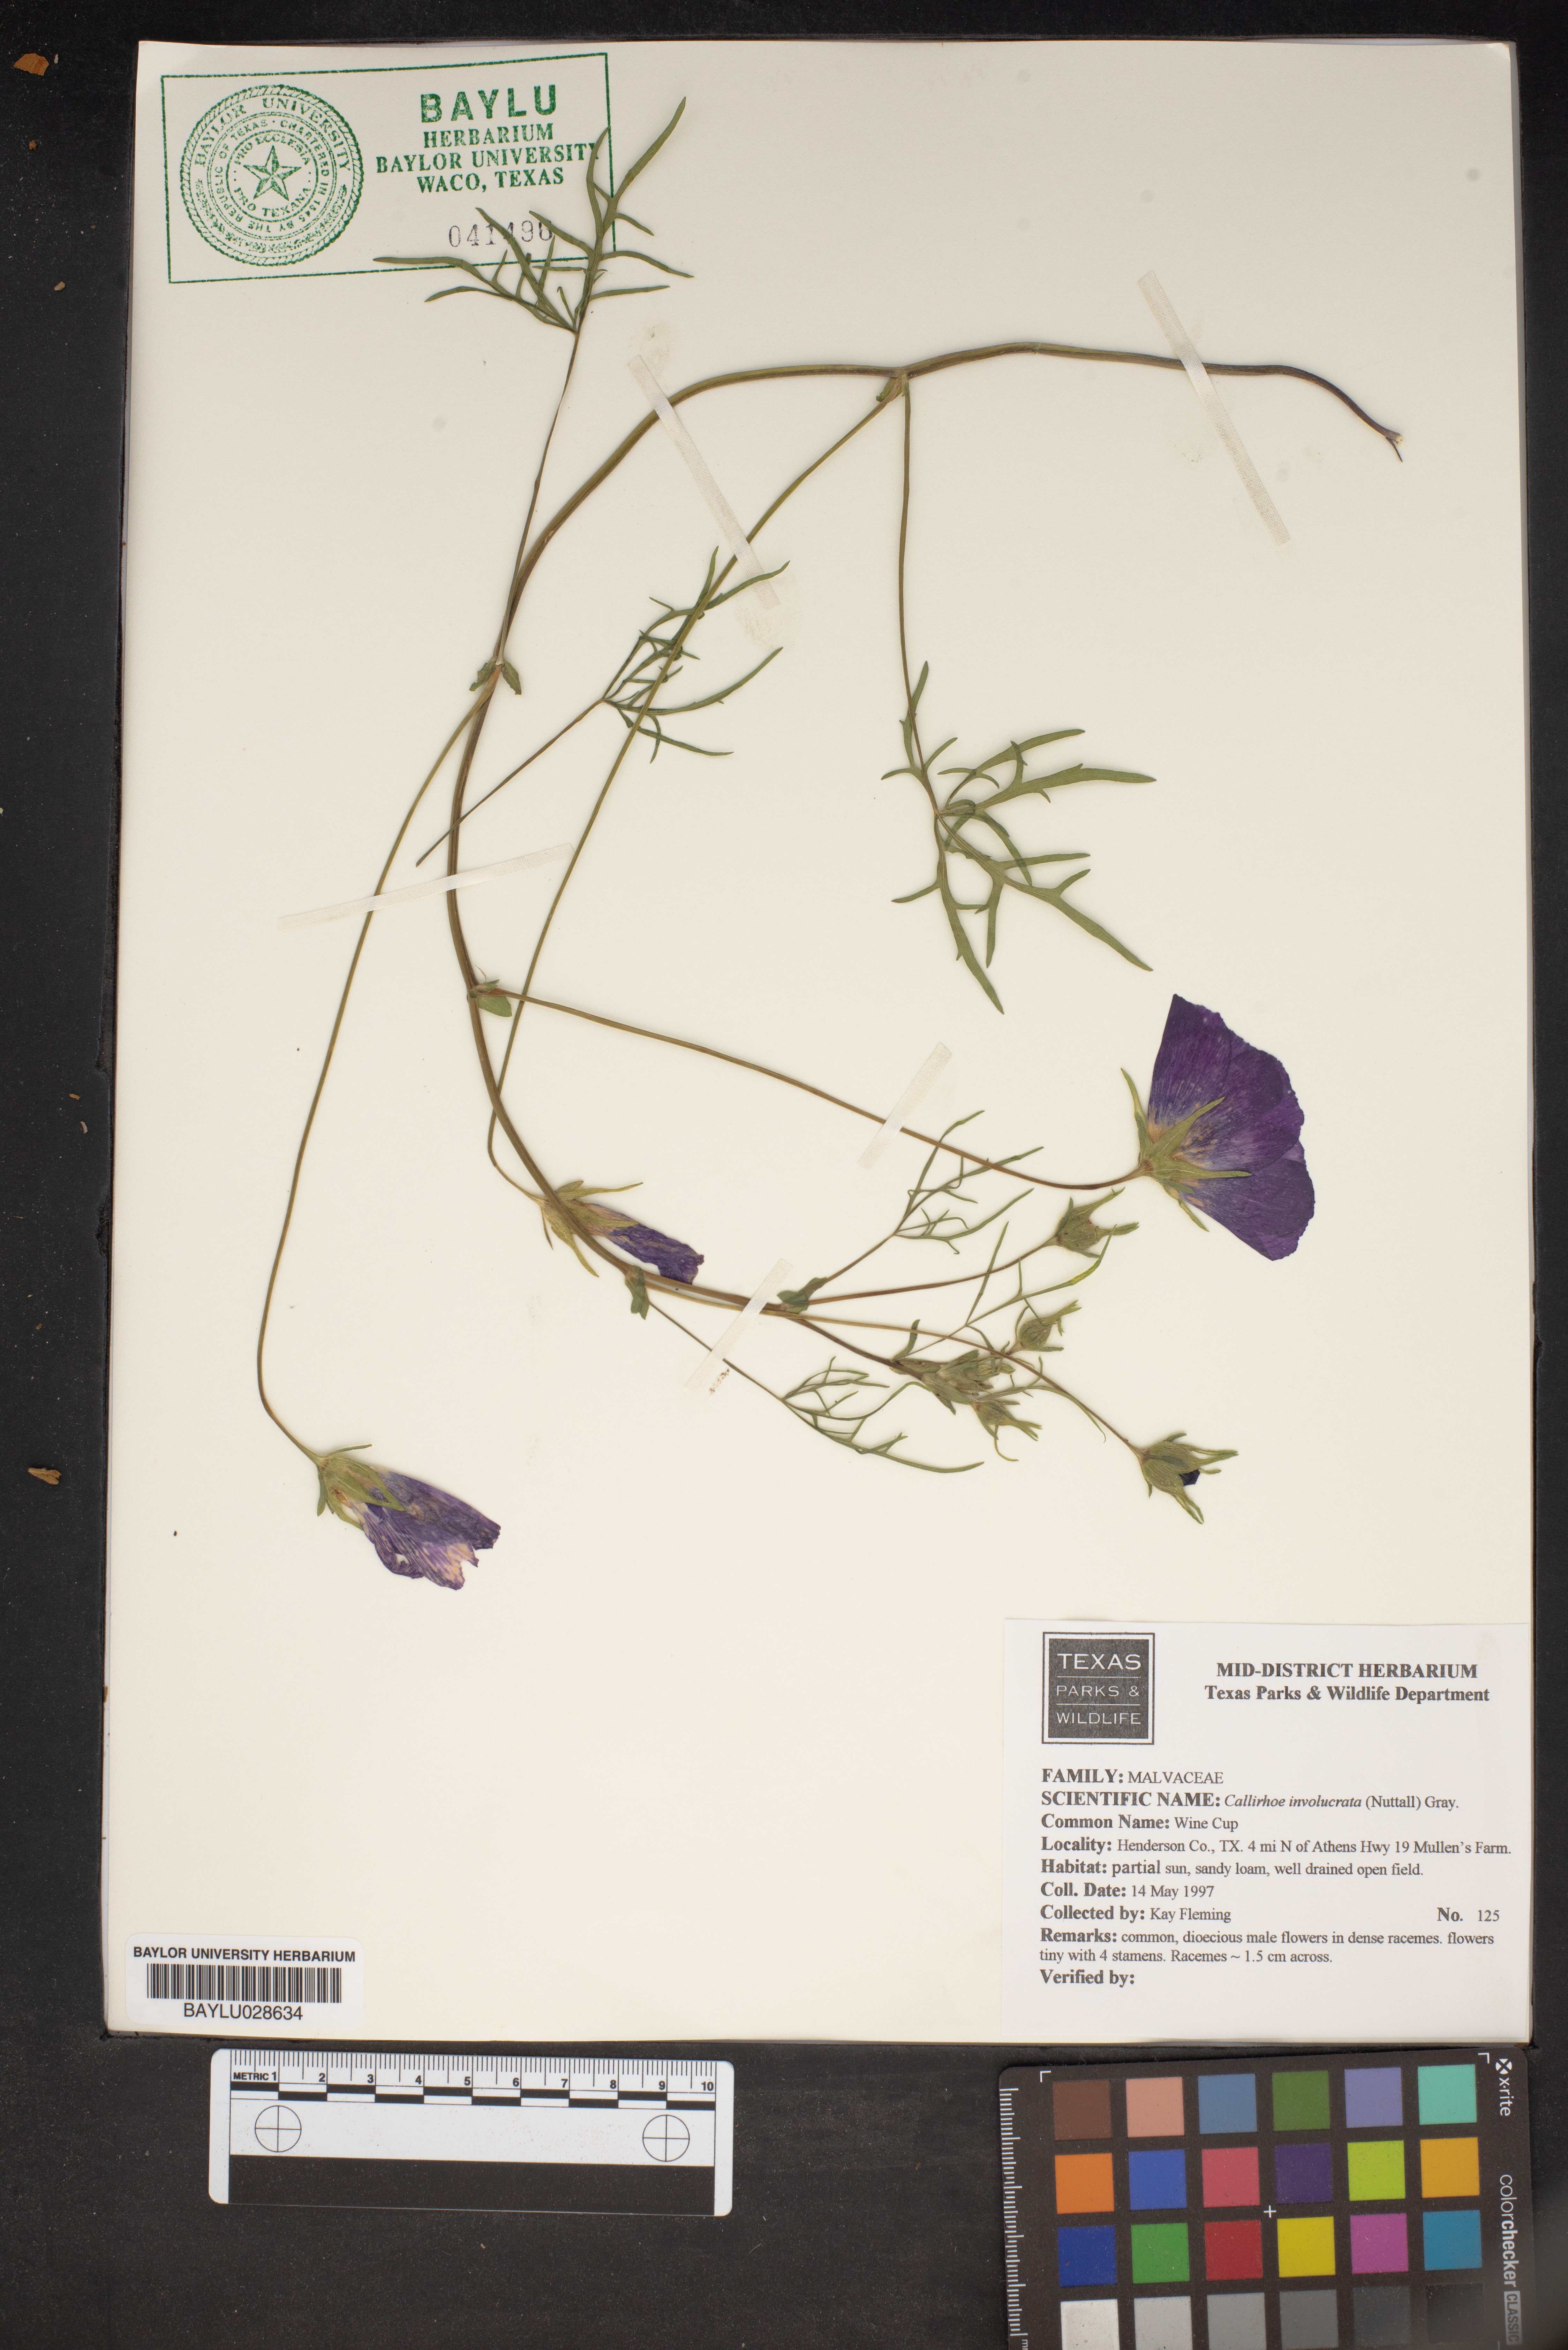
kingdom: Plantae
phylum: Tracheophyta
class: Magnoliopsida
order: Malvales
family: Malvaceae
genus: Callirhoe
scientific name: Callirhoe involucrata
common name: Purple poppy-mallow
